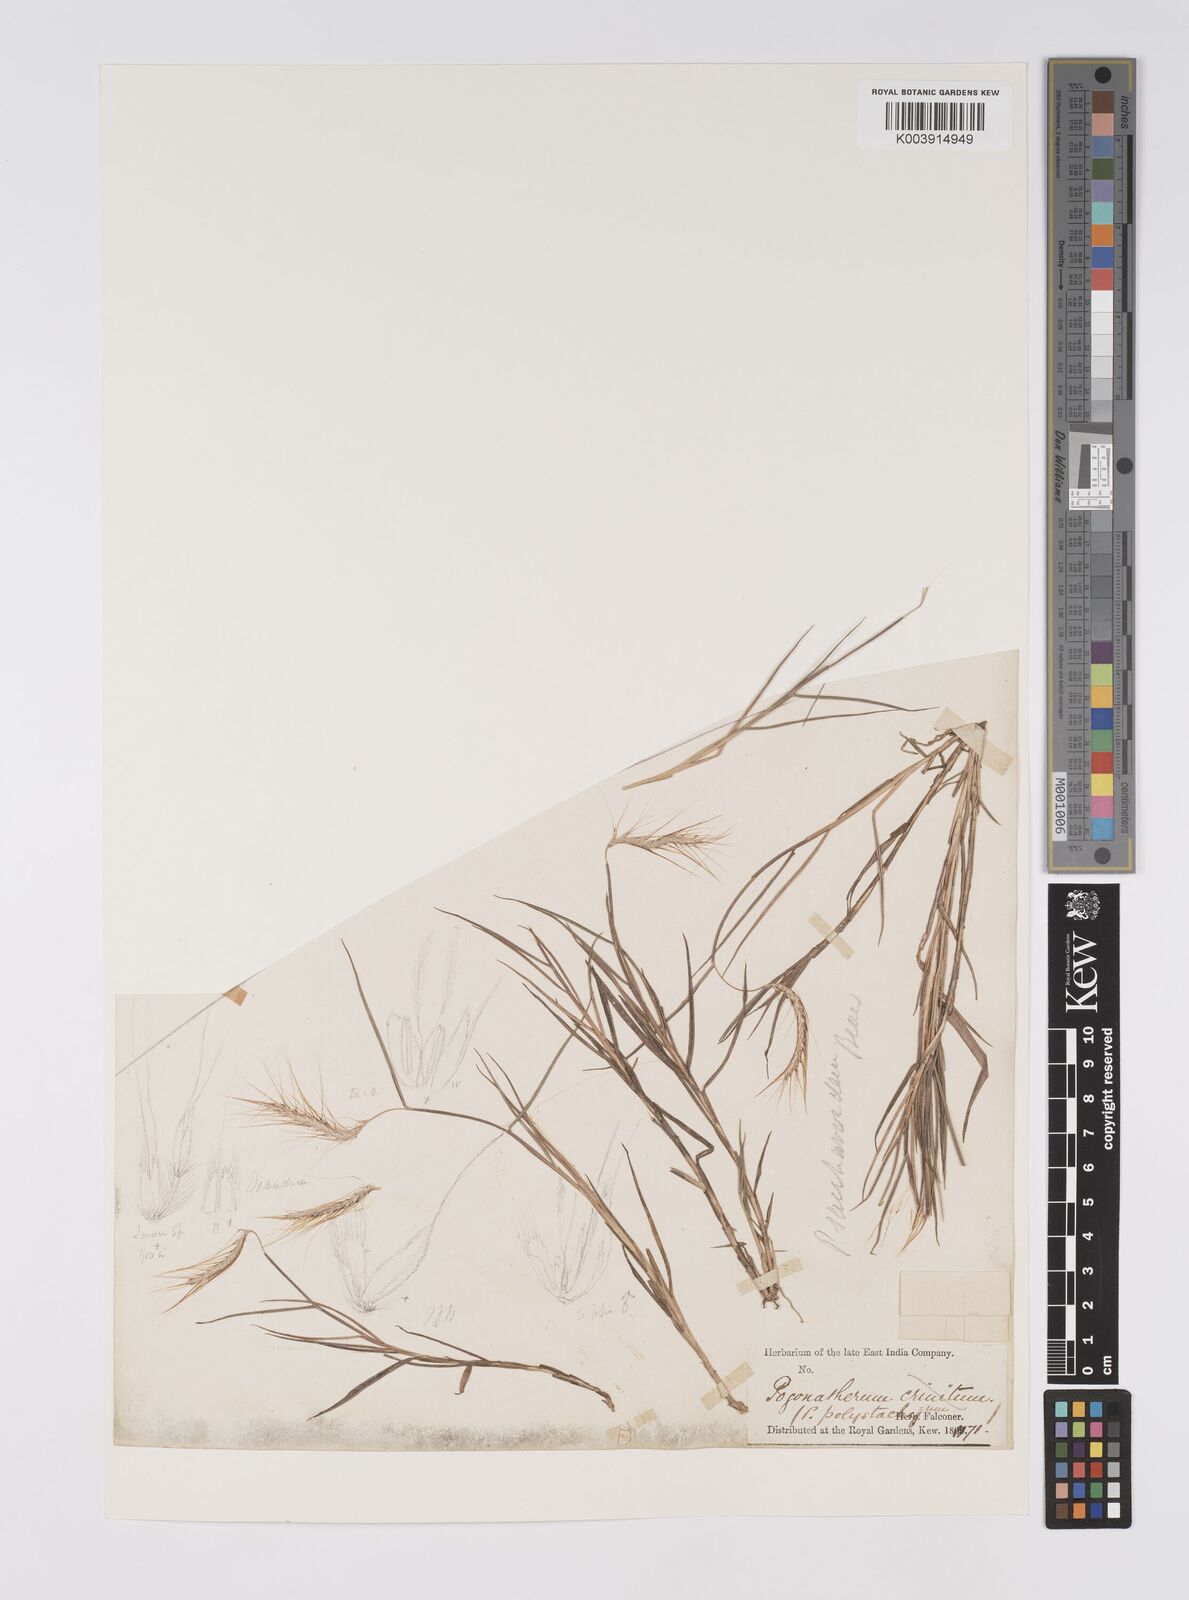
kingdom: Plantae
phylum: Tracheophyta
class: Liliopsida
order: Poales
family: Poaceae
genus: Pogonatherum
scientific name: Pogonatherum paniceum
